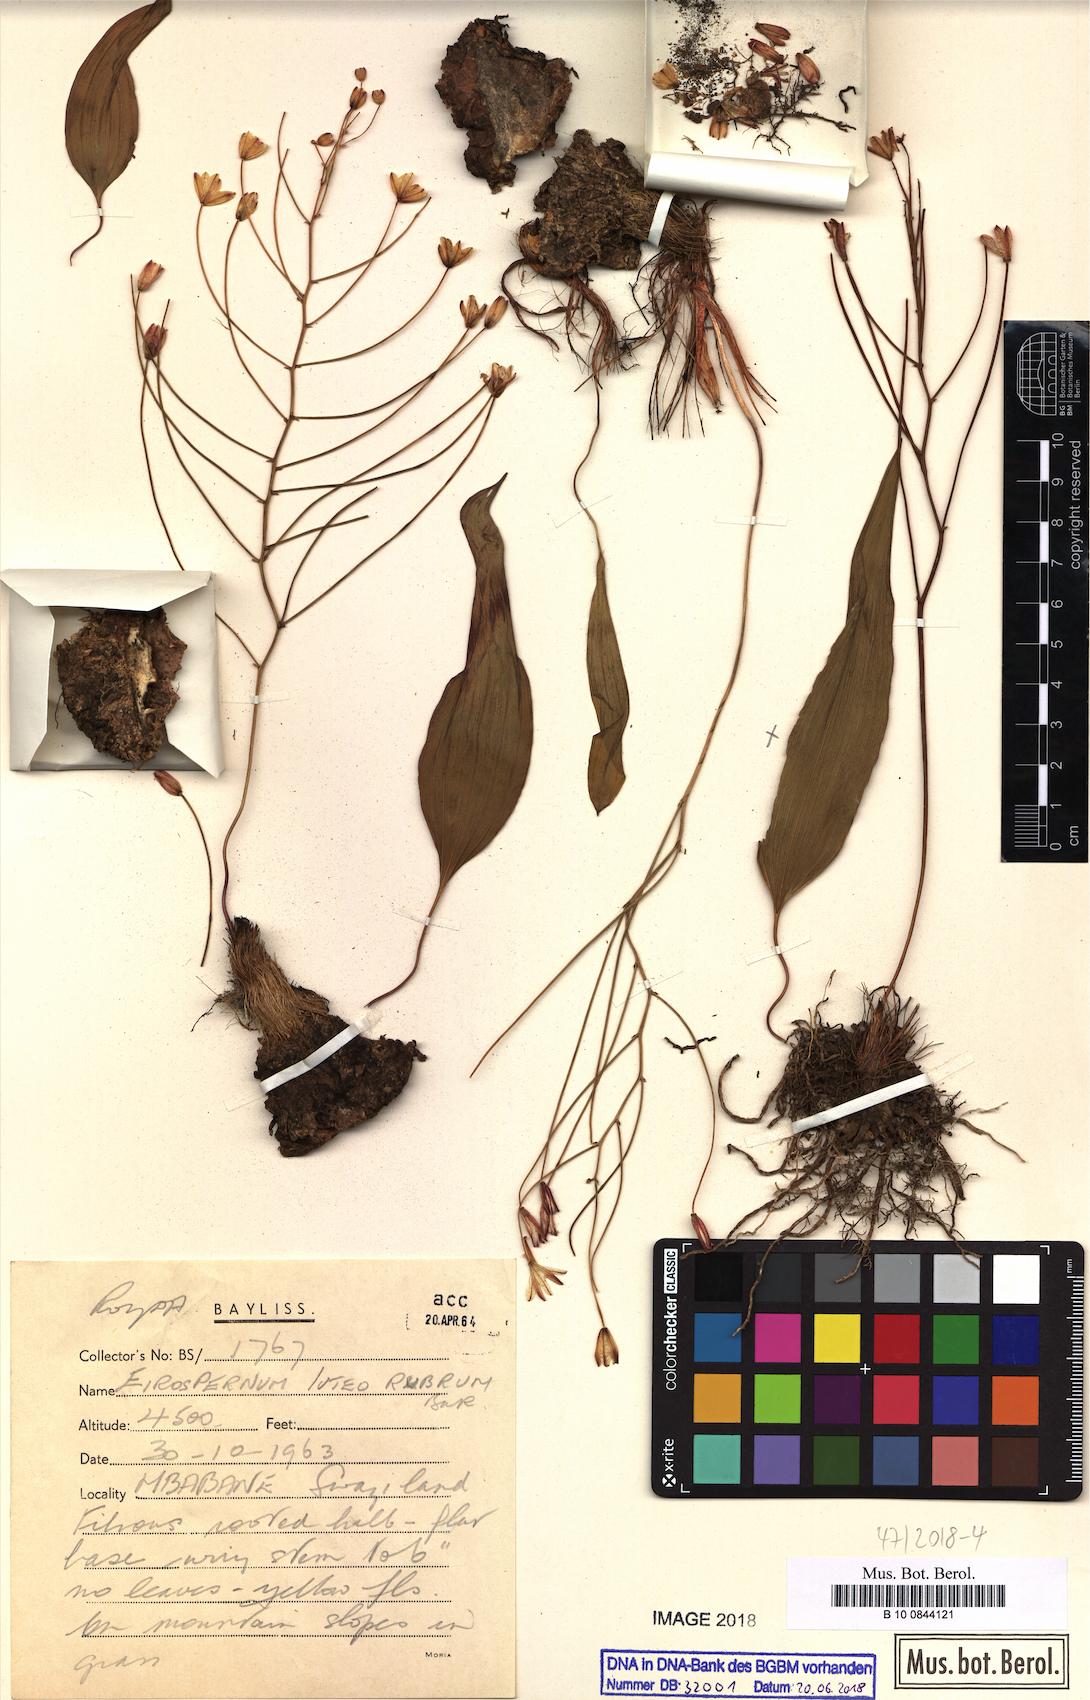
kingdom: Plantae
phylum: Tracheophyta
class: Liliopsida
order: Asparagales
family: Asparagaceae
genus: Eriospermum
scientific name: Eriospermum abyssinicum
